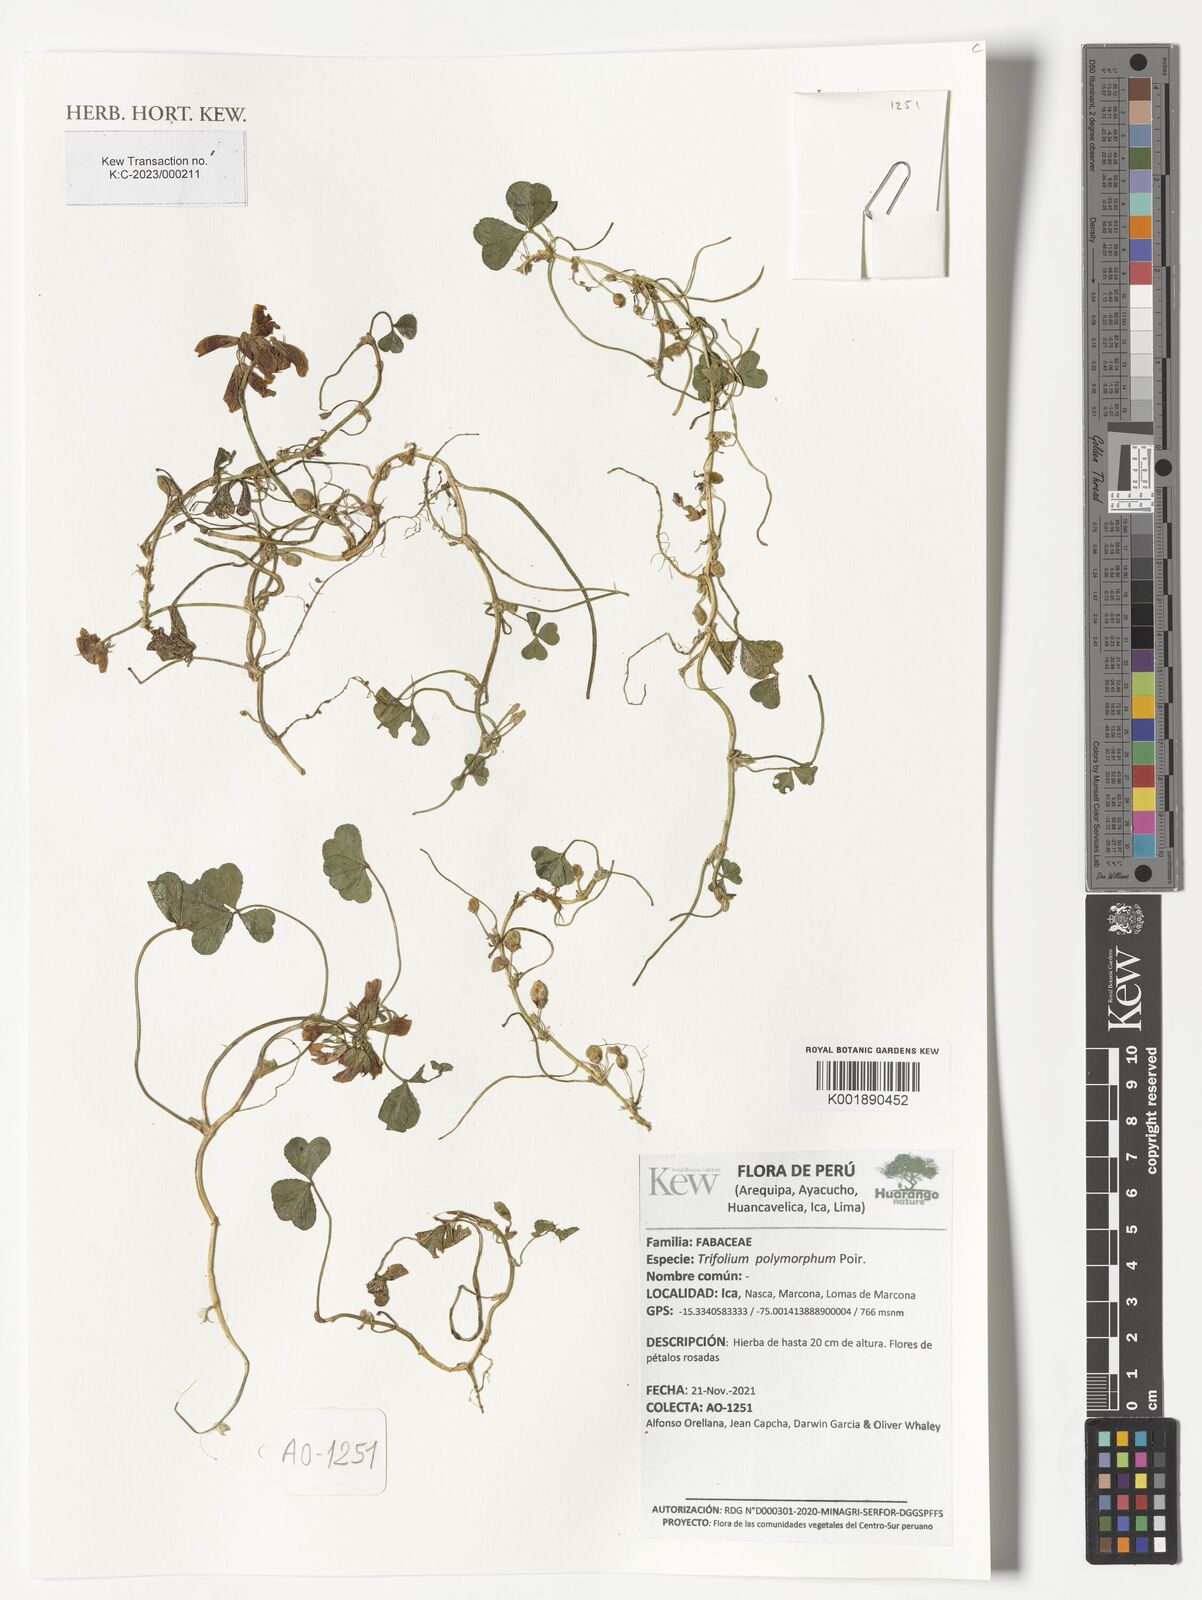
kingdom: Plantae
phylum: Tracheophyta
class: Magnoliopsida
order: Fabales
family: Fabaceae
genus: Trifolium
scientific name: Trifolium polymorphum
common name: Peanut clover
